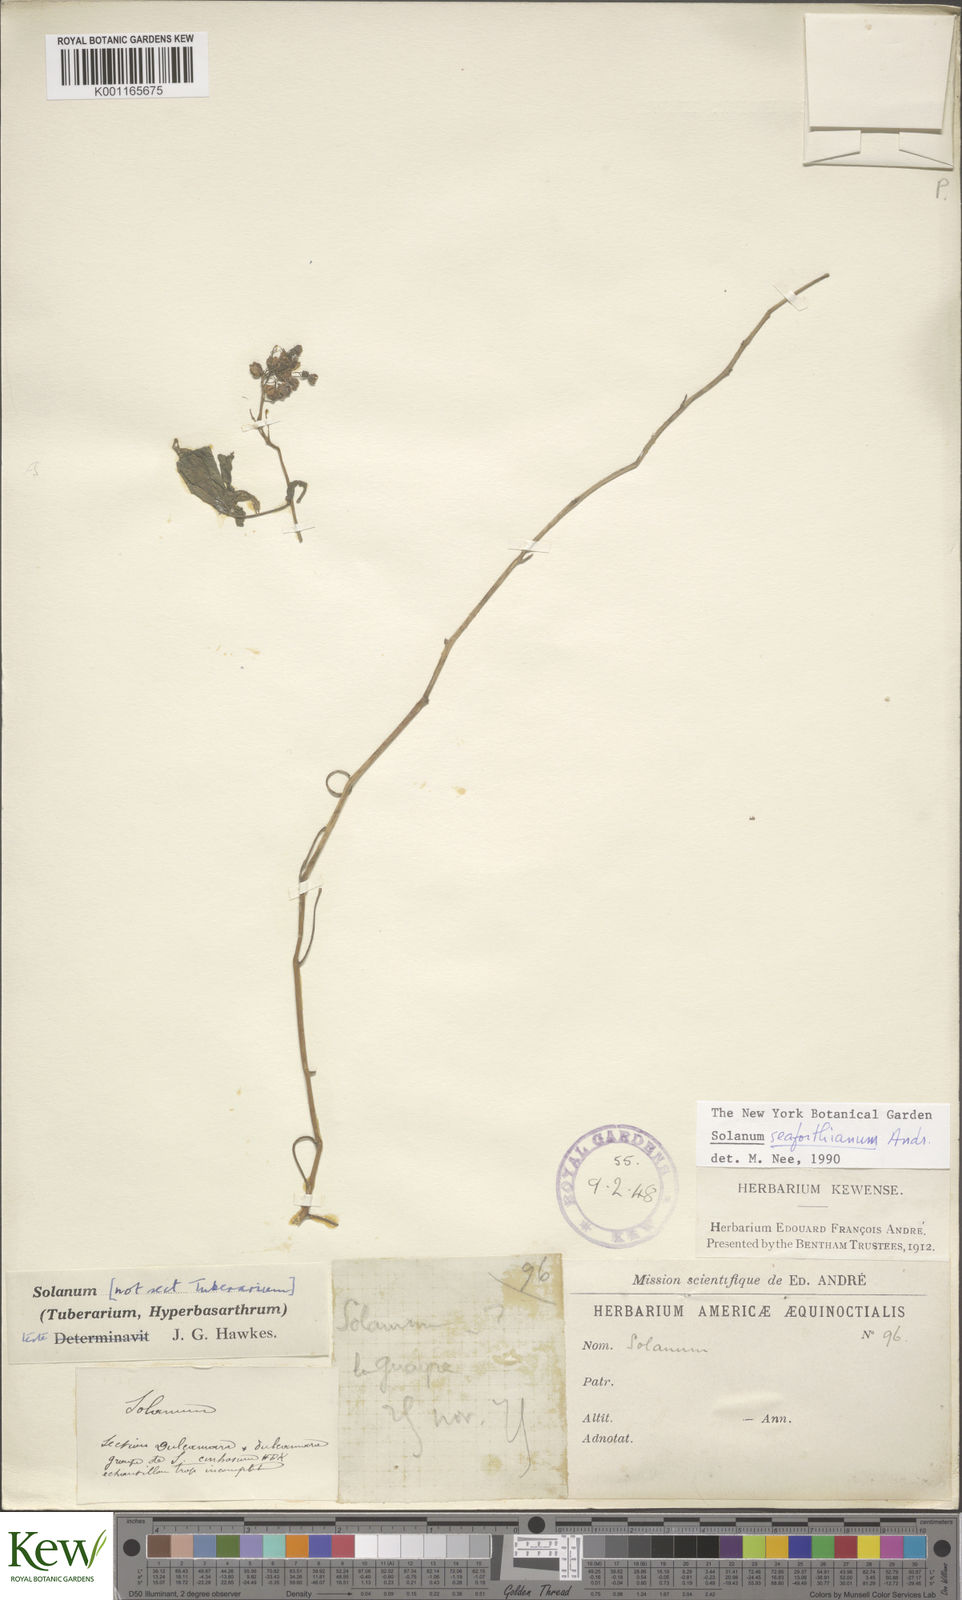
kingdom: Plantae
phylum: Tracheophyta
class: Magnoliopsida
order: Solanales
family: Solanaceae
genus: Solanum
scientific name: Solanum seaforthianum
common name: Brazilian nightshade
